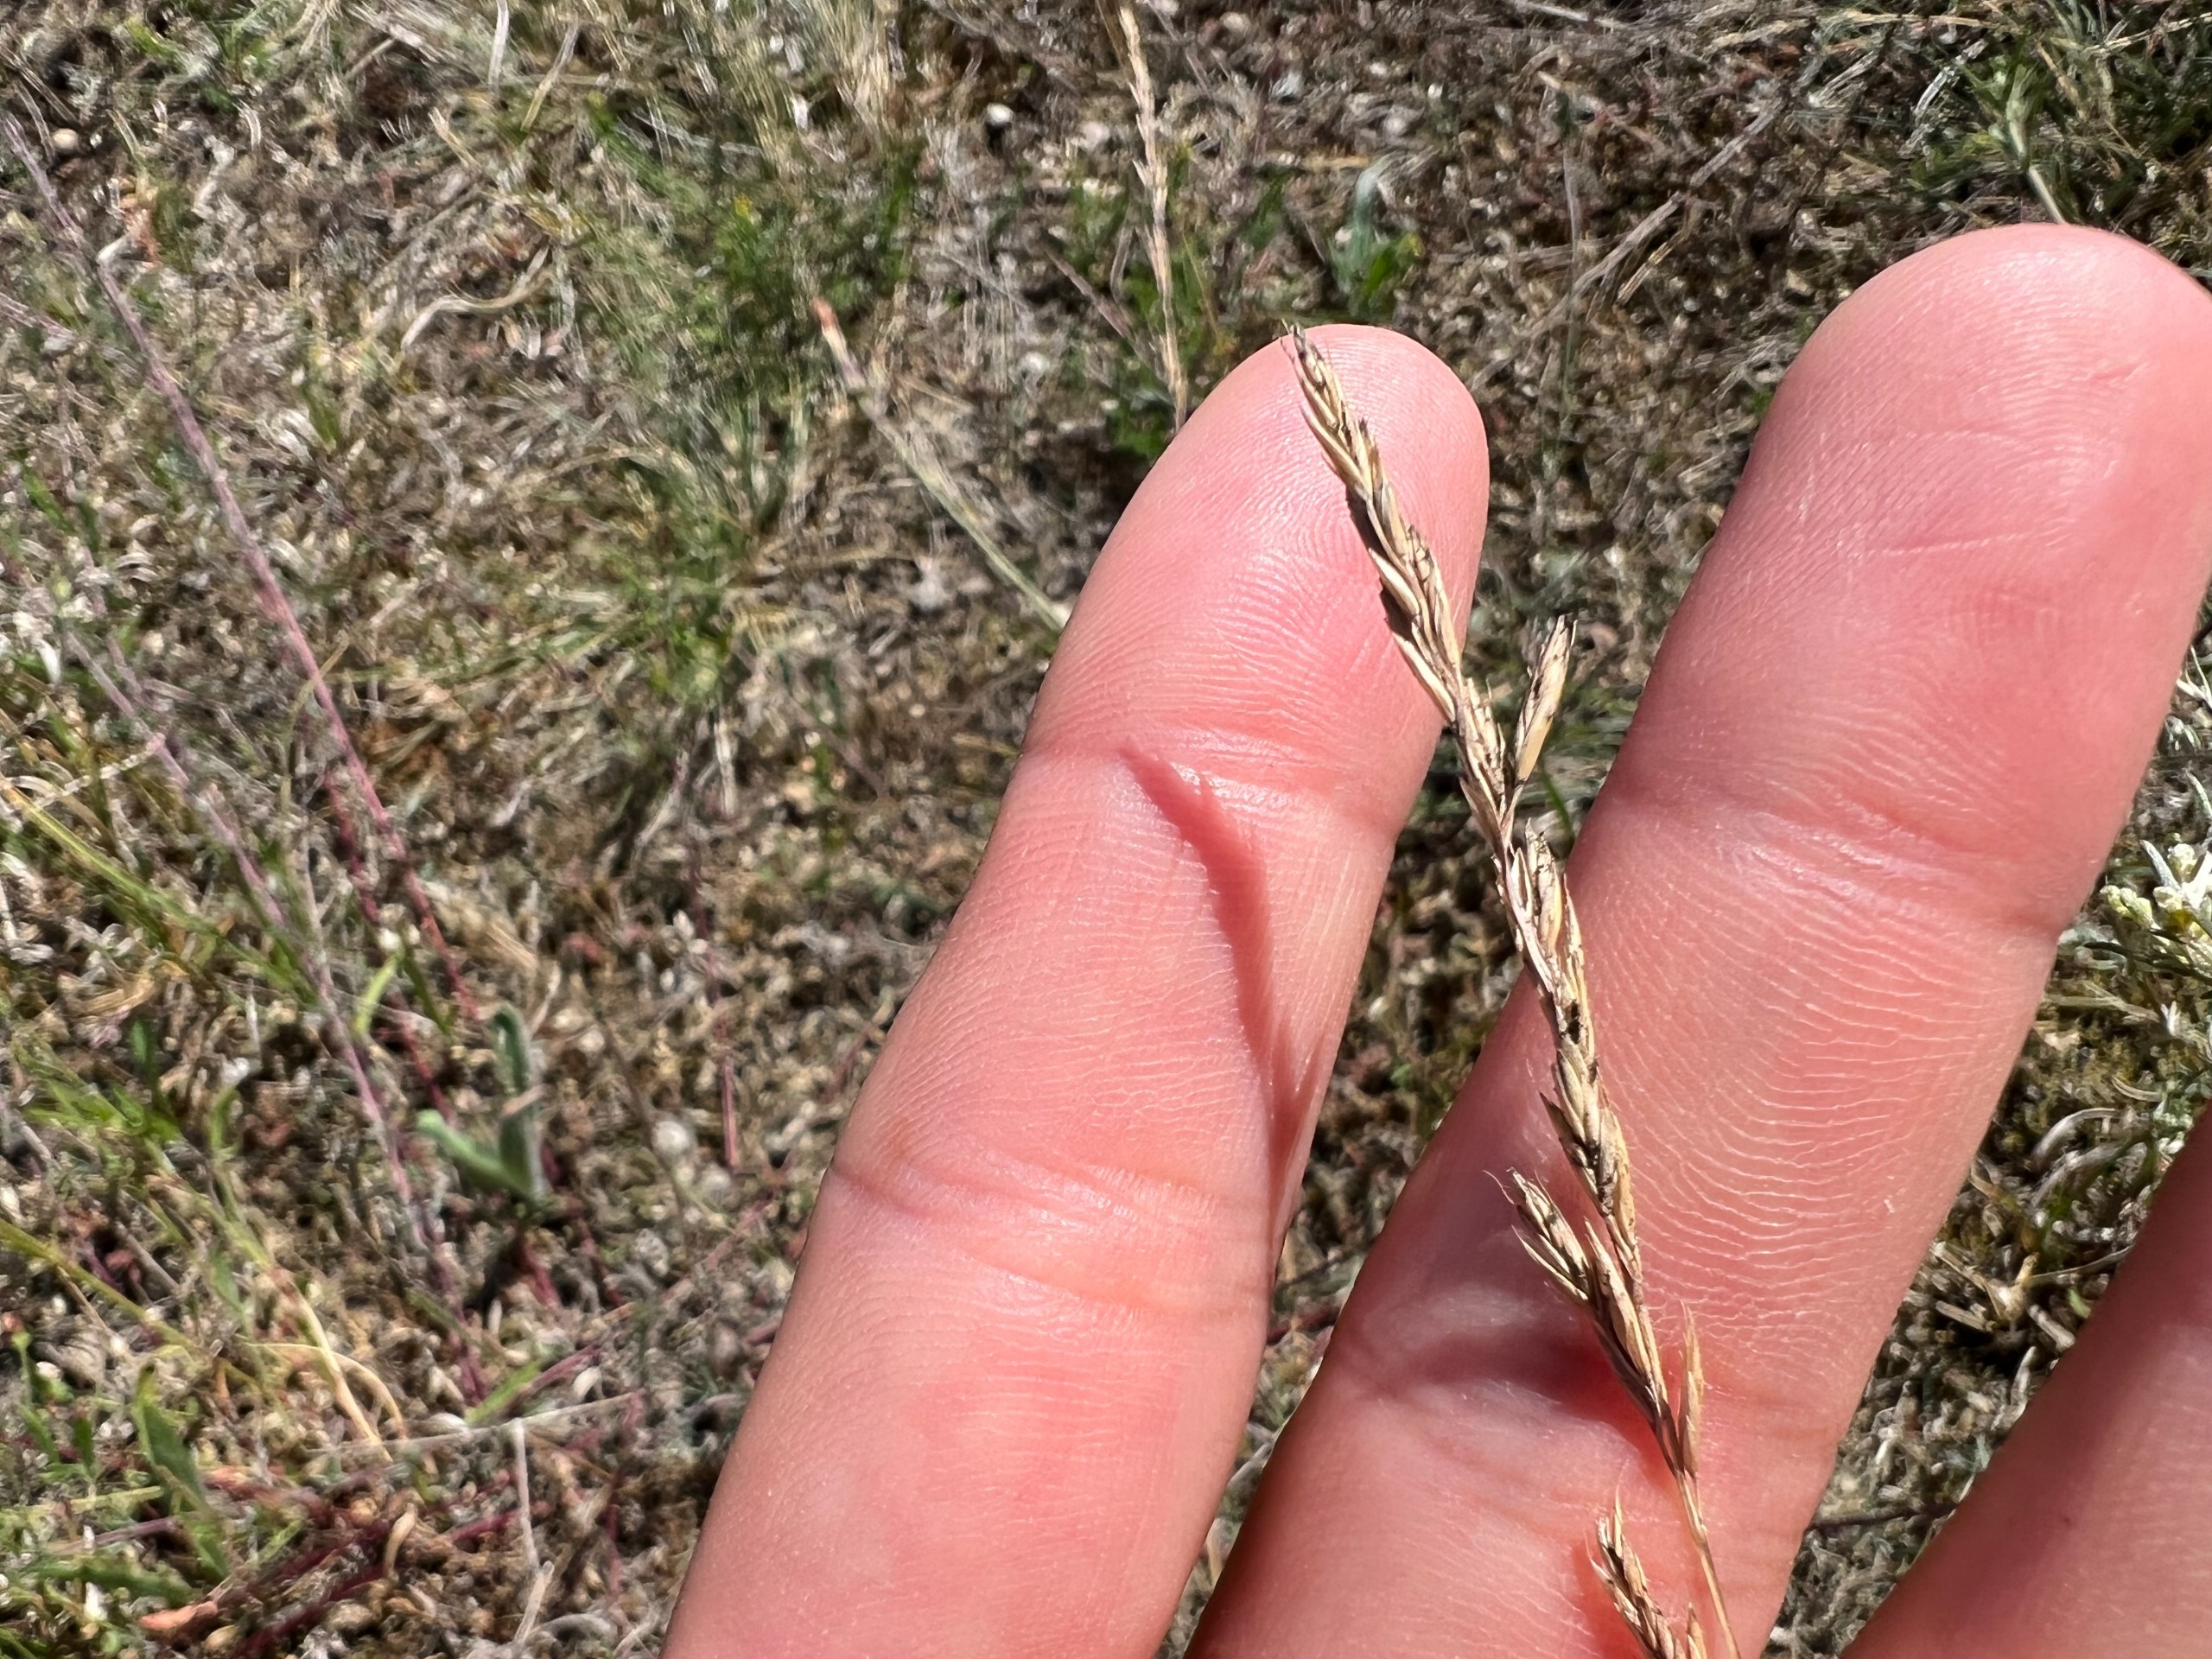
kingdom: Plantae
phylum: Tracheophyta
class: Liliopsida
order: Poales
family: Poaceae
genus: Festuca
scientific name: Festuca beckeri
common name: Baltisk svingel
